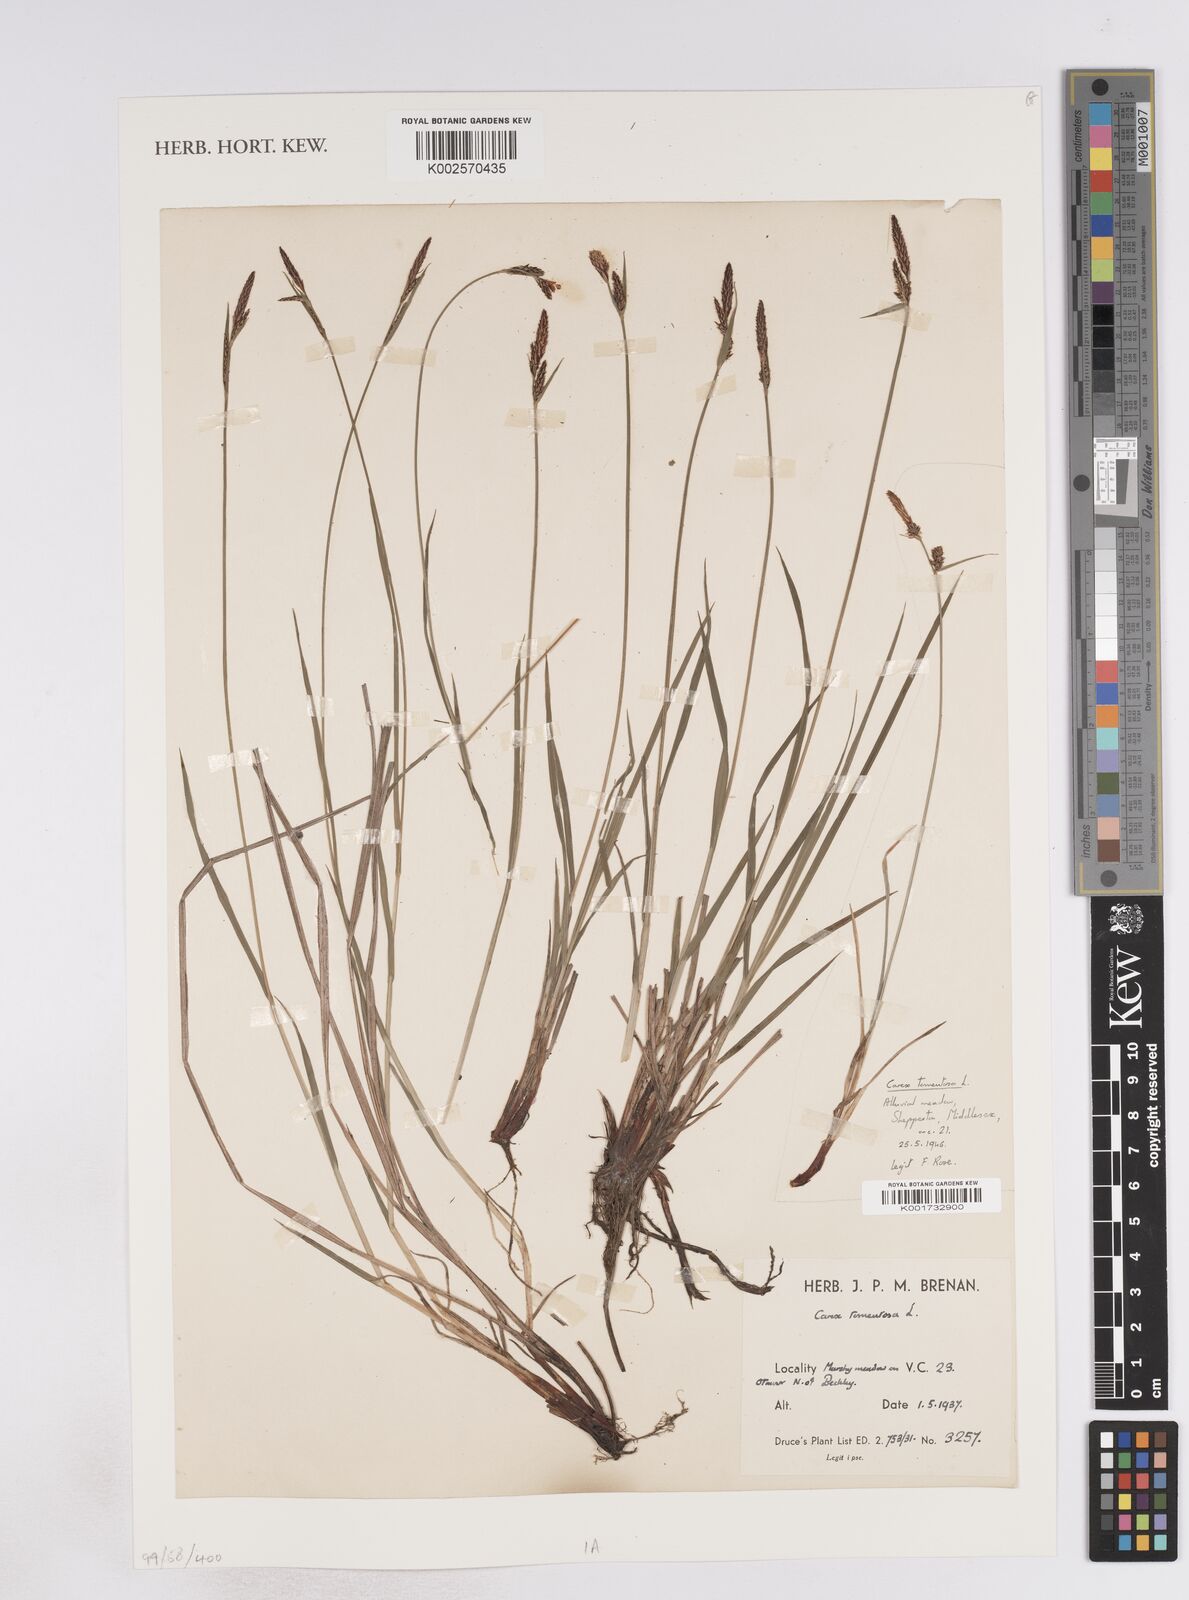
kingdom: Plantae
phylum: Tracheophyta
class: Liliopsida
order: Poales
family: Cyperaceae
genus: Carex
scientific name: Carex montana
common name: Soft-leaved sedge
